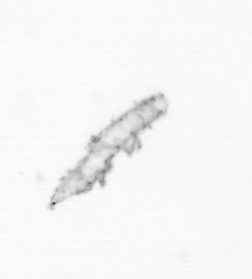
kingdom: Chromista
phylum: Ochrophyta
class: Bacillariophyceae
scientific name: Bacillariophyceae
